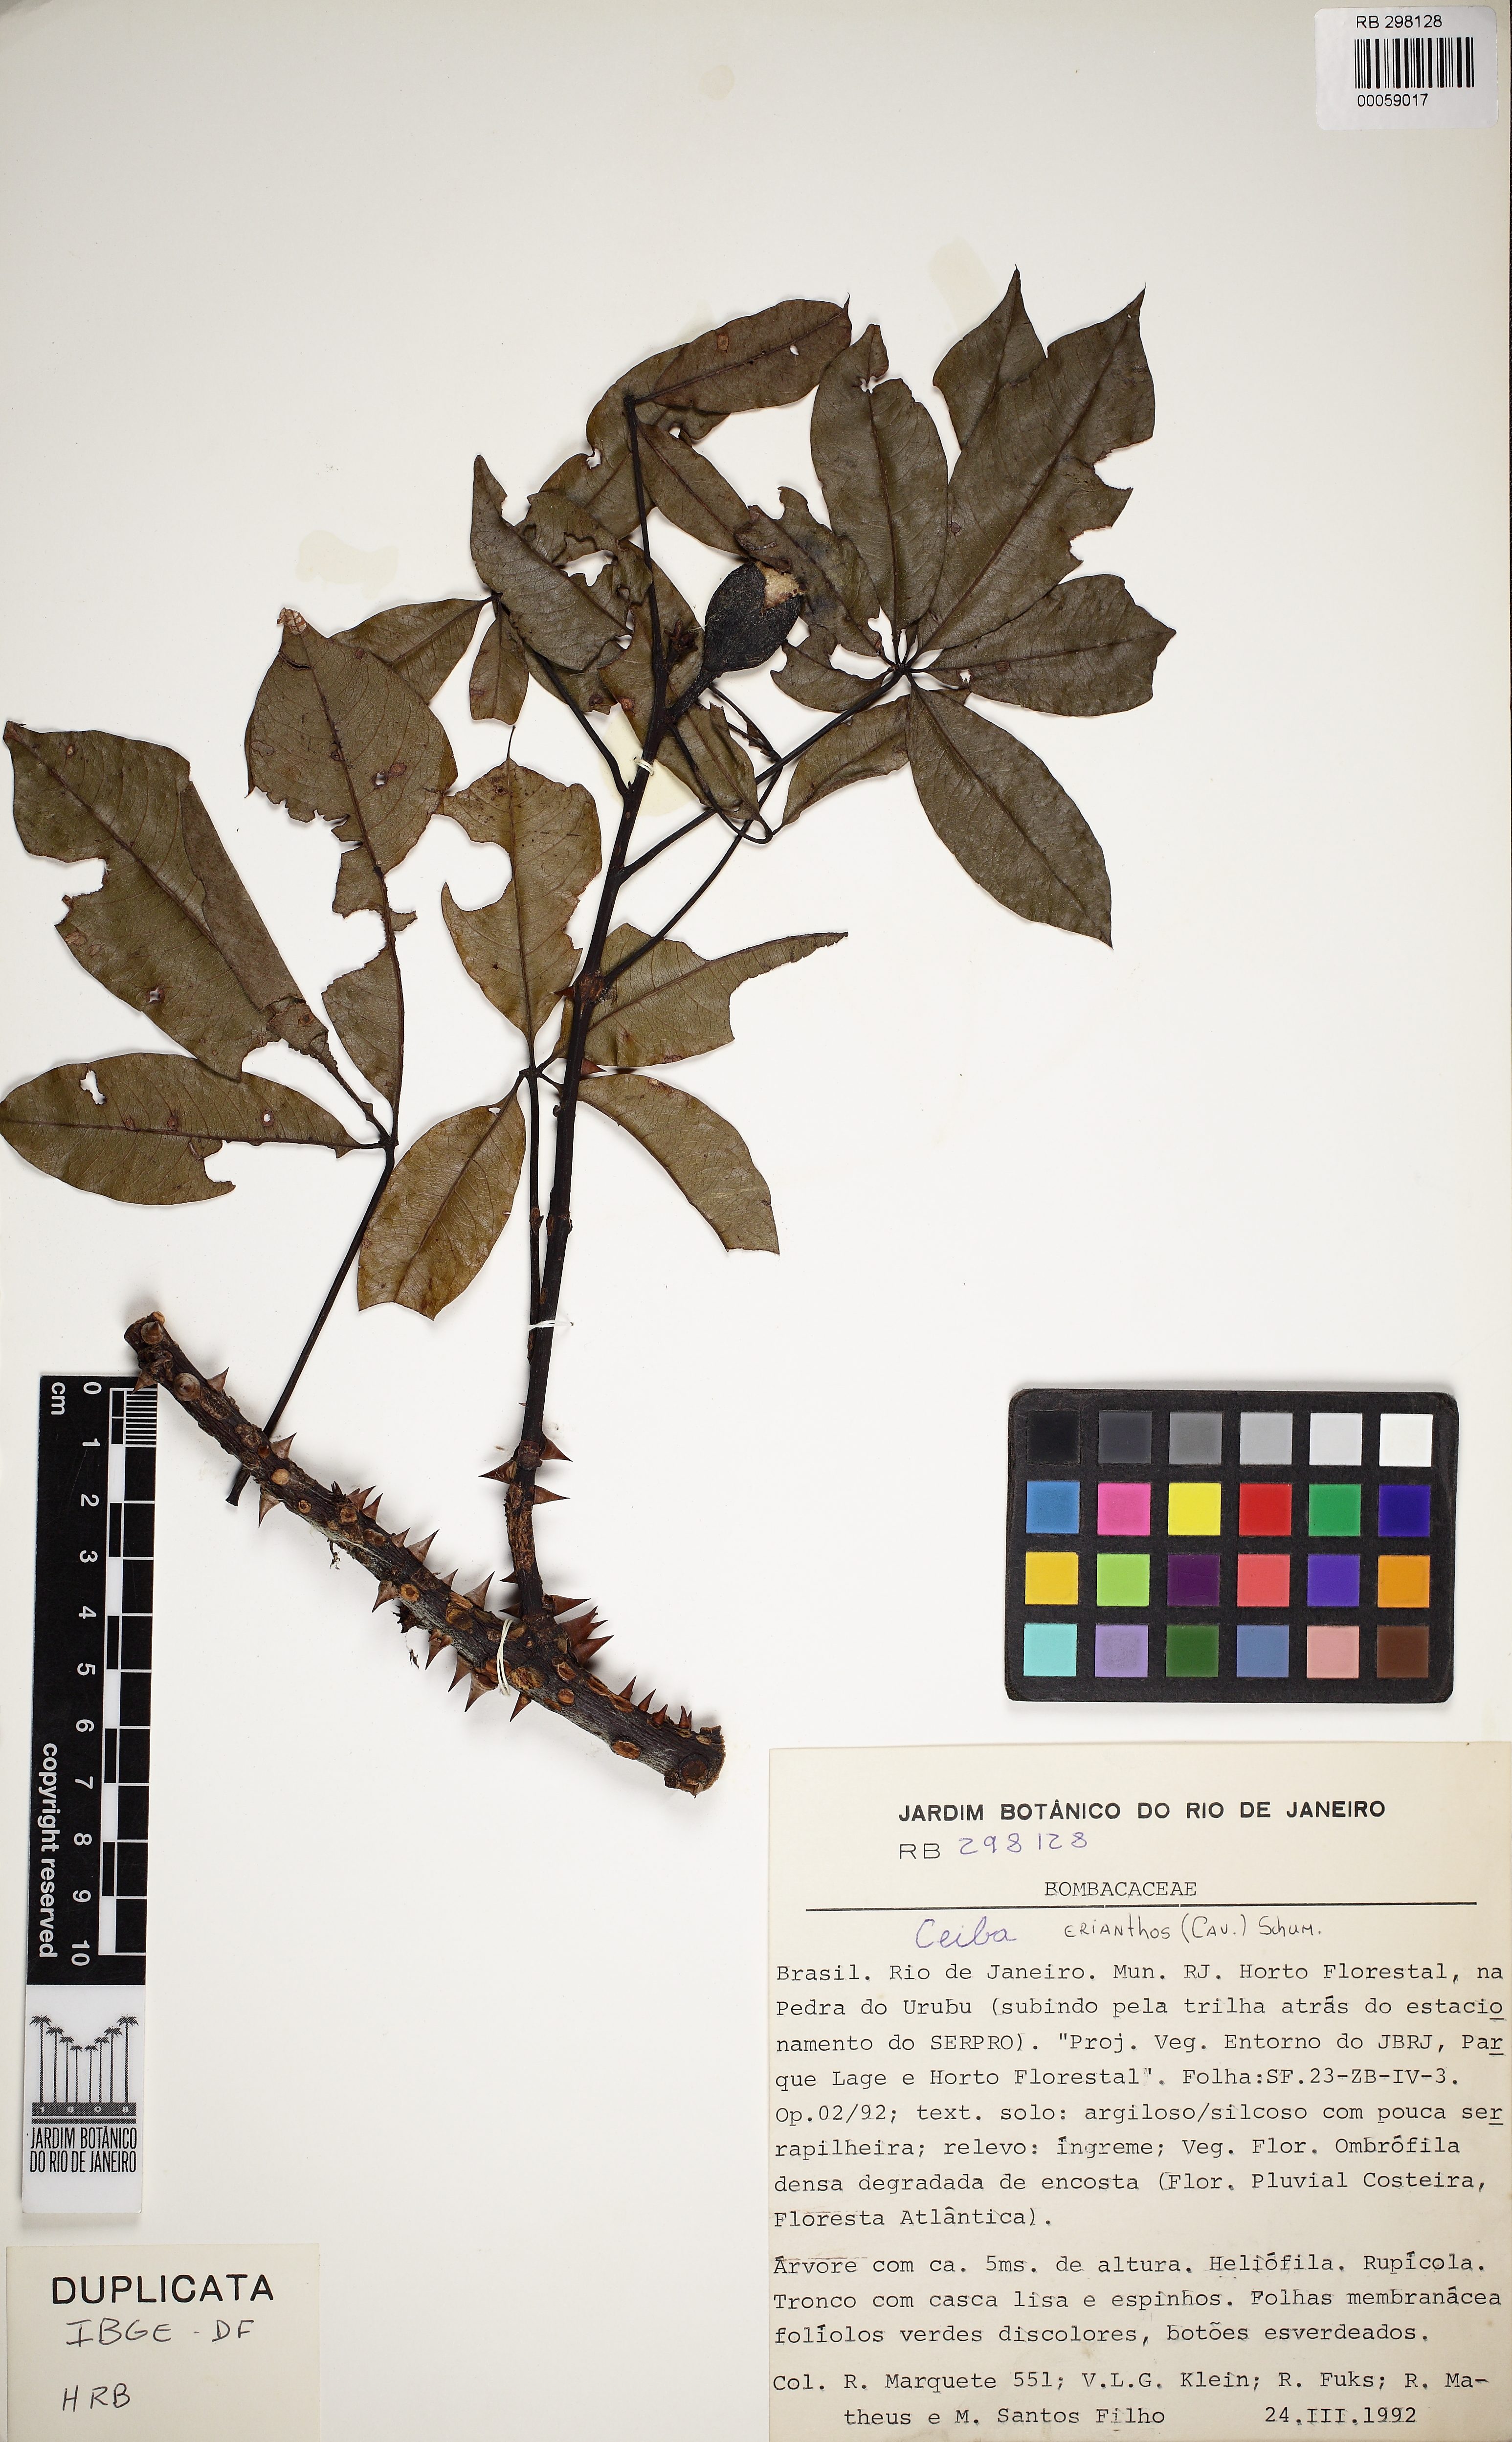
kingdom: Plantae
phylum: Tracheophyta
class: Magnoliopsida
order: Malvales
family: Malvaceae
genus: Ceiba
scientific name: Ceiba erianthos
